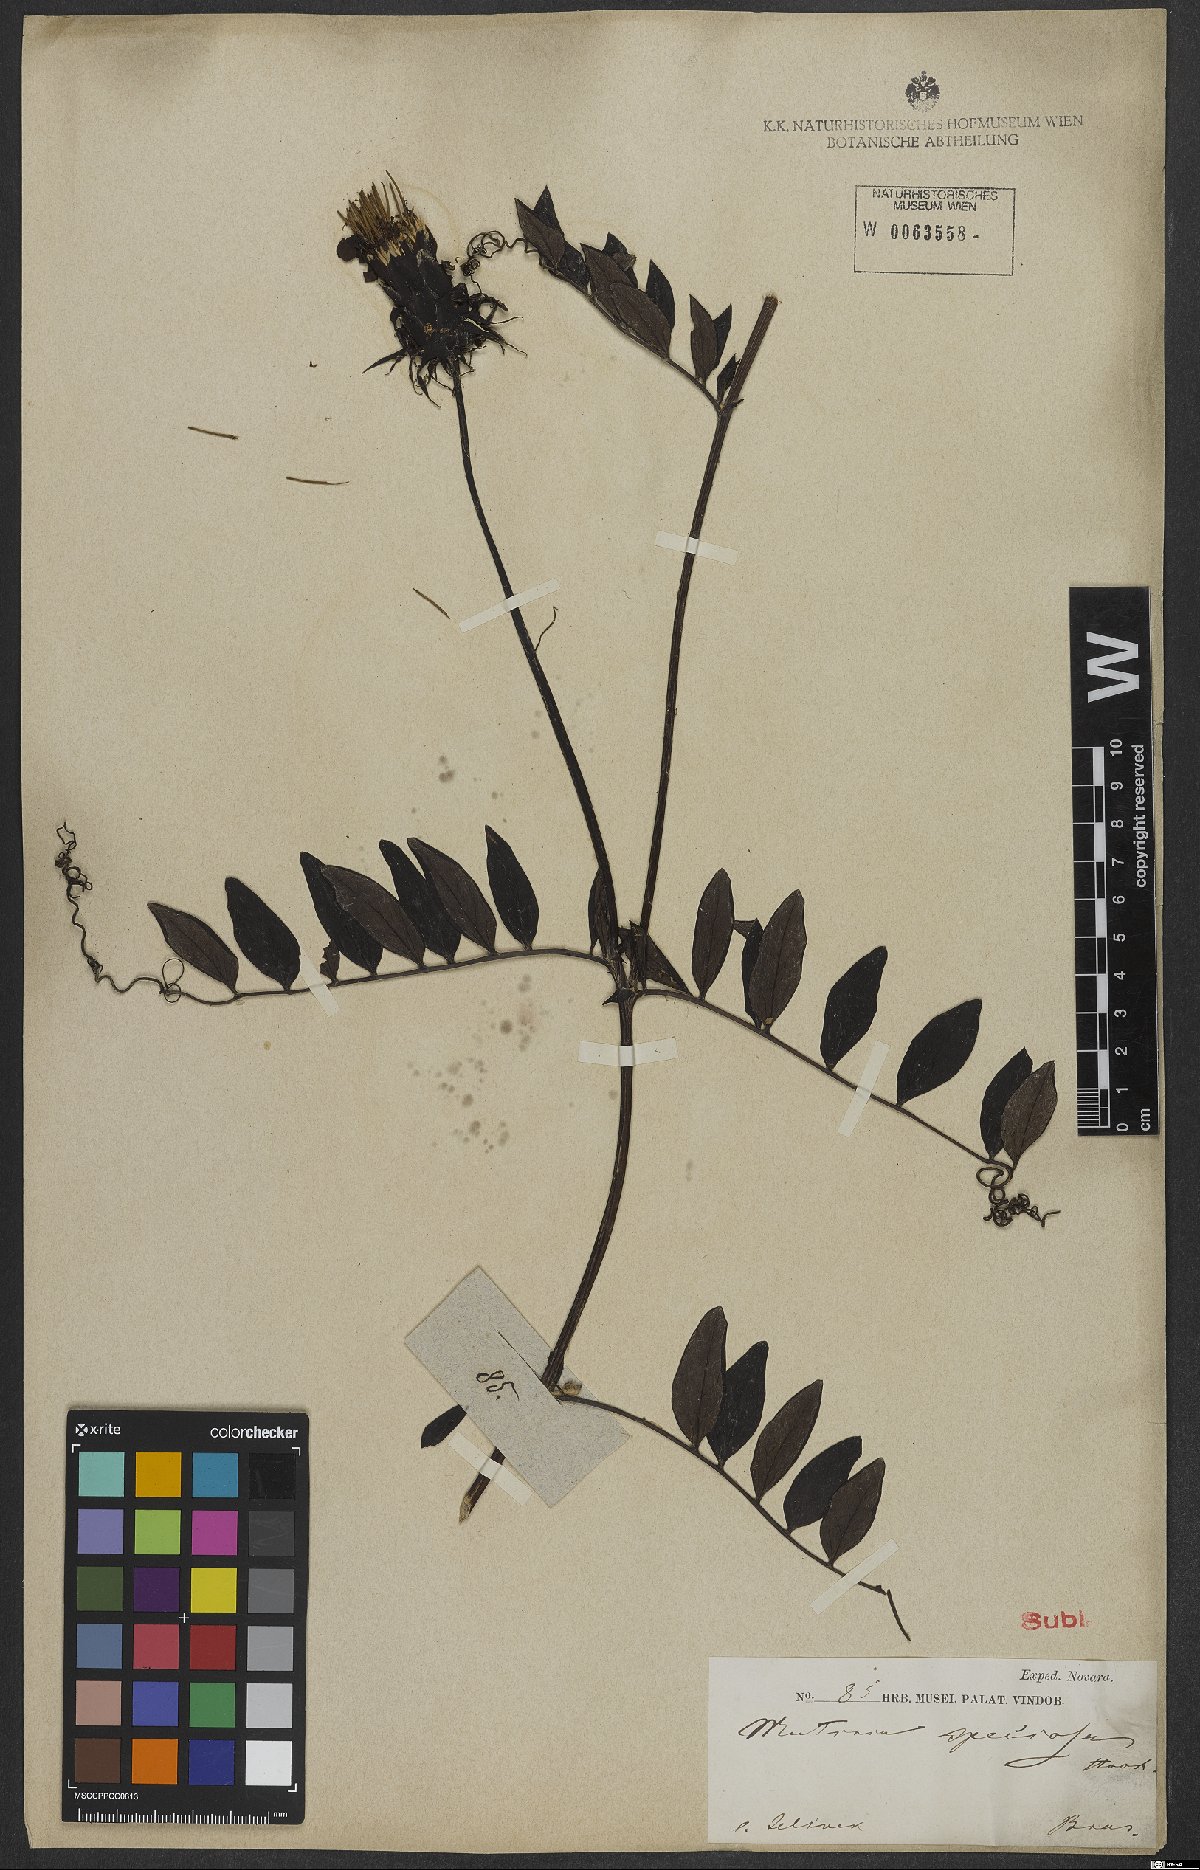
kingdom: Plantae
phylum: Tracheophyta
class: Magnoliopsida
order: Asterales
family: Asteraceae
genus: Mutisia
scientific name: Mutisia speciosa
